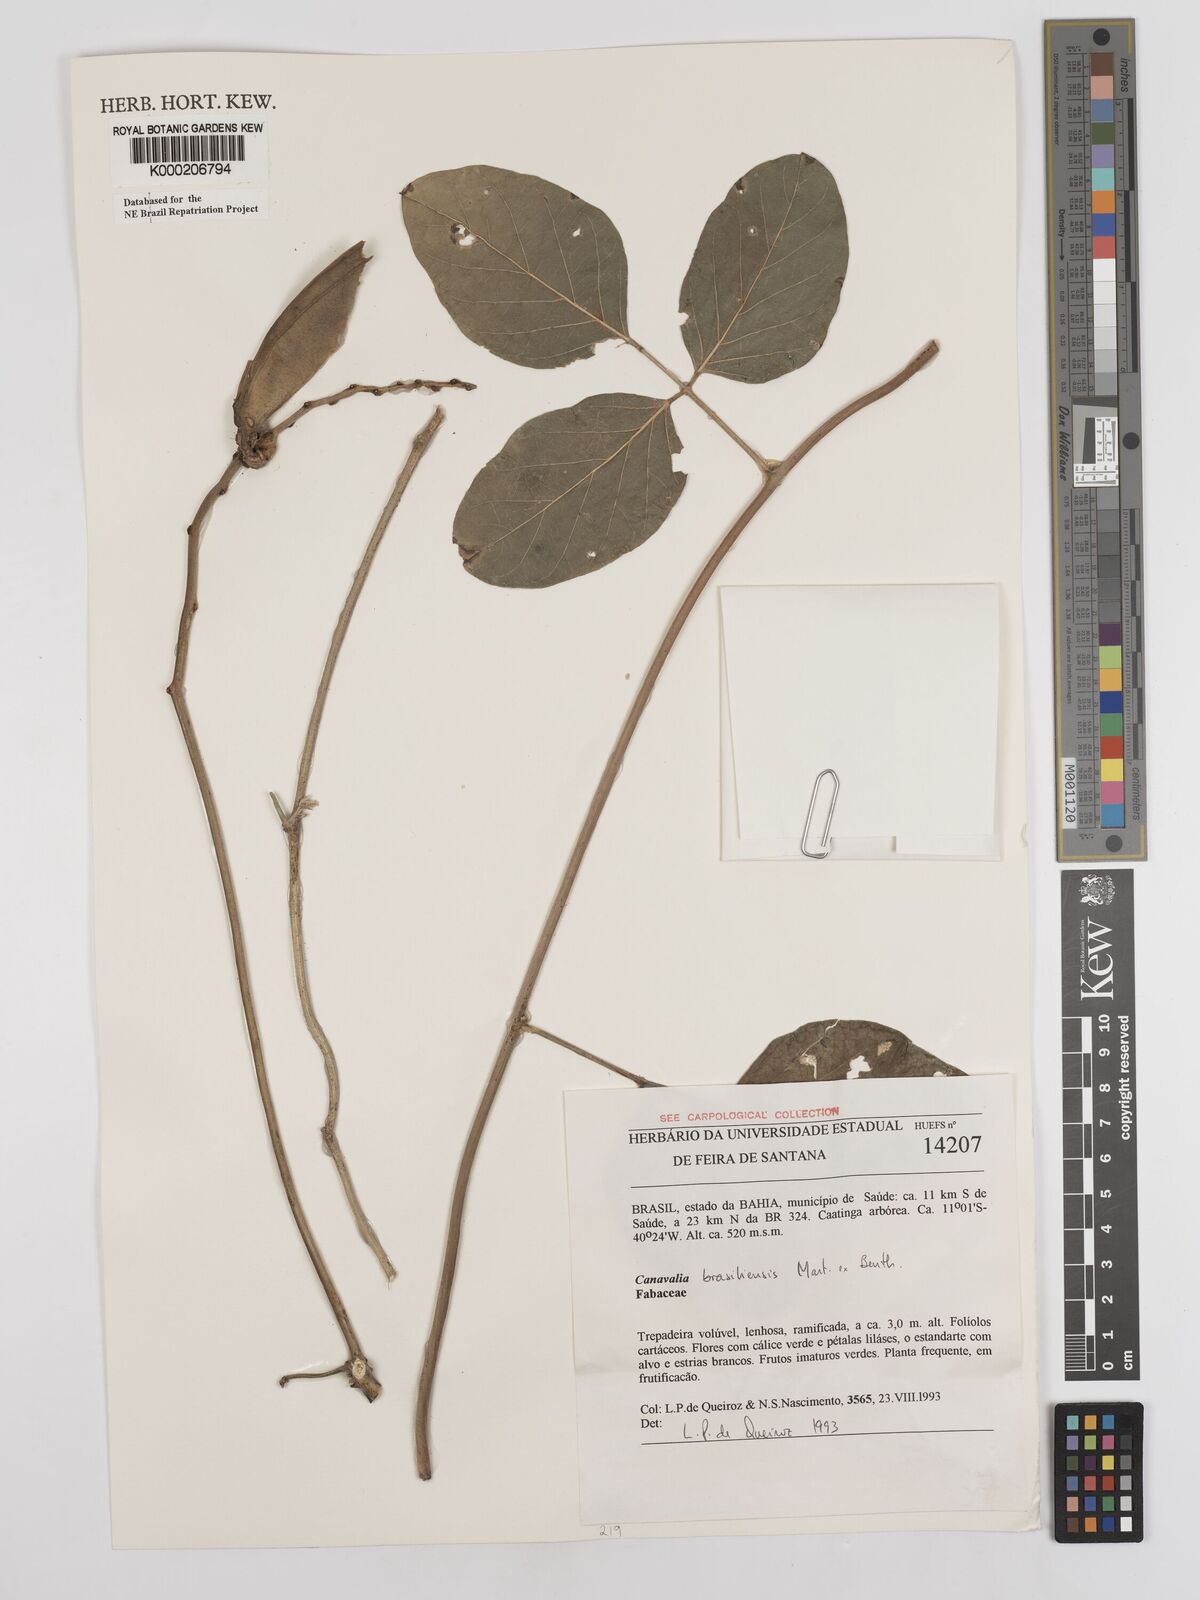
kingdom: Plantae
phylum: Tracheophyta
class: Magnoliopsida
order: Fabales
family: Fabaceae
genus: Canavalia
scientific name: Canavalia brasiliensis
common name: Barbicou-bean
